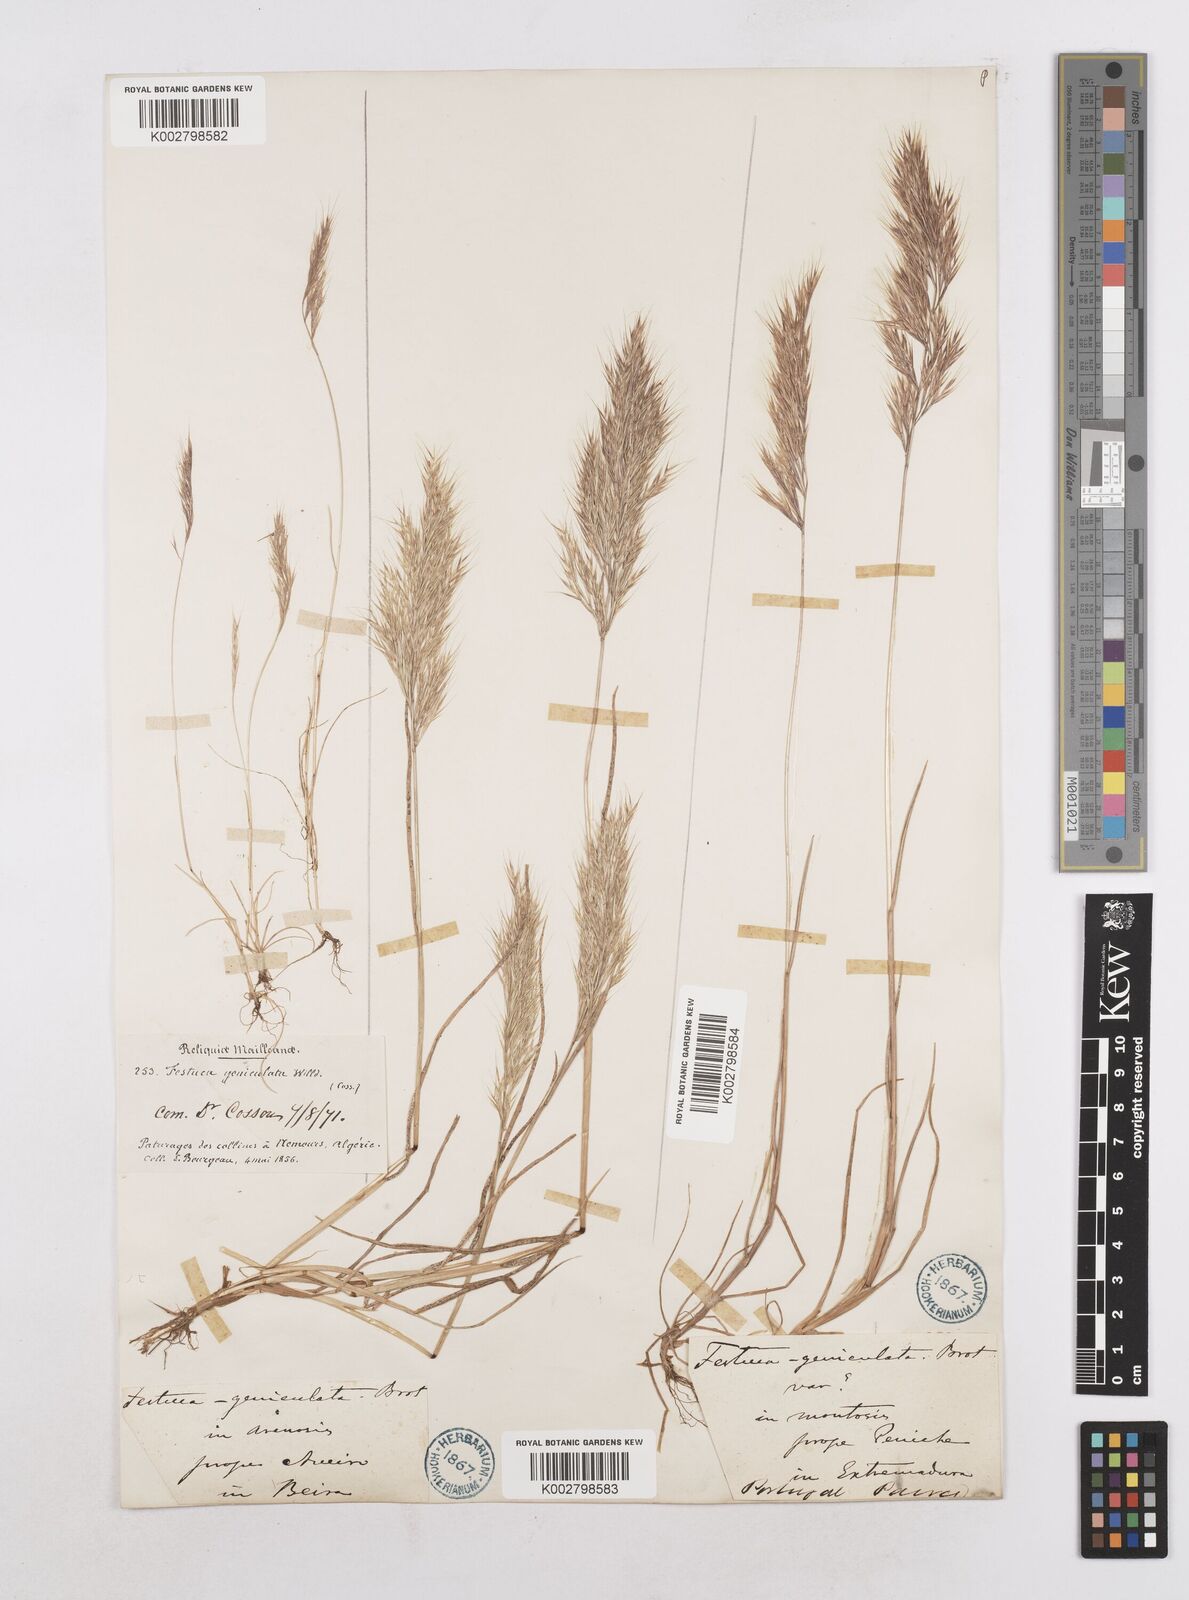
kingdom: Plantae
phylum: Tracheophyta
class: Liliopsida
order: Poales
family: Poaceae
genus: Festuca
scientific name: Festuca geniculata
